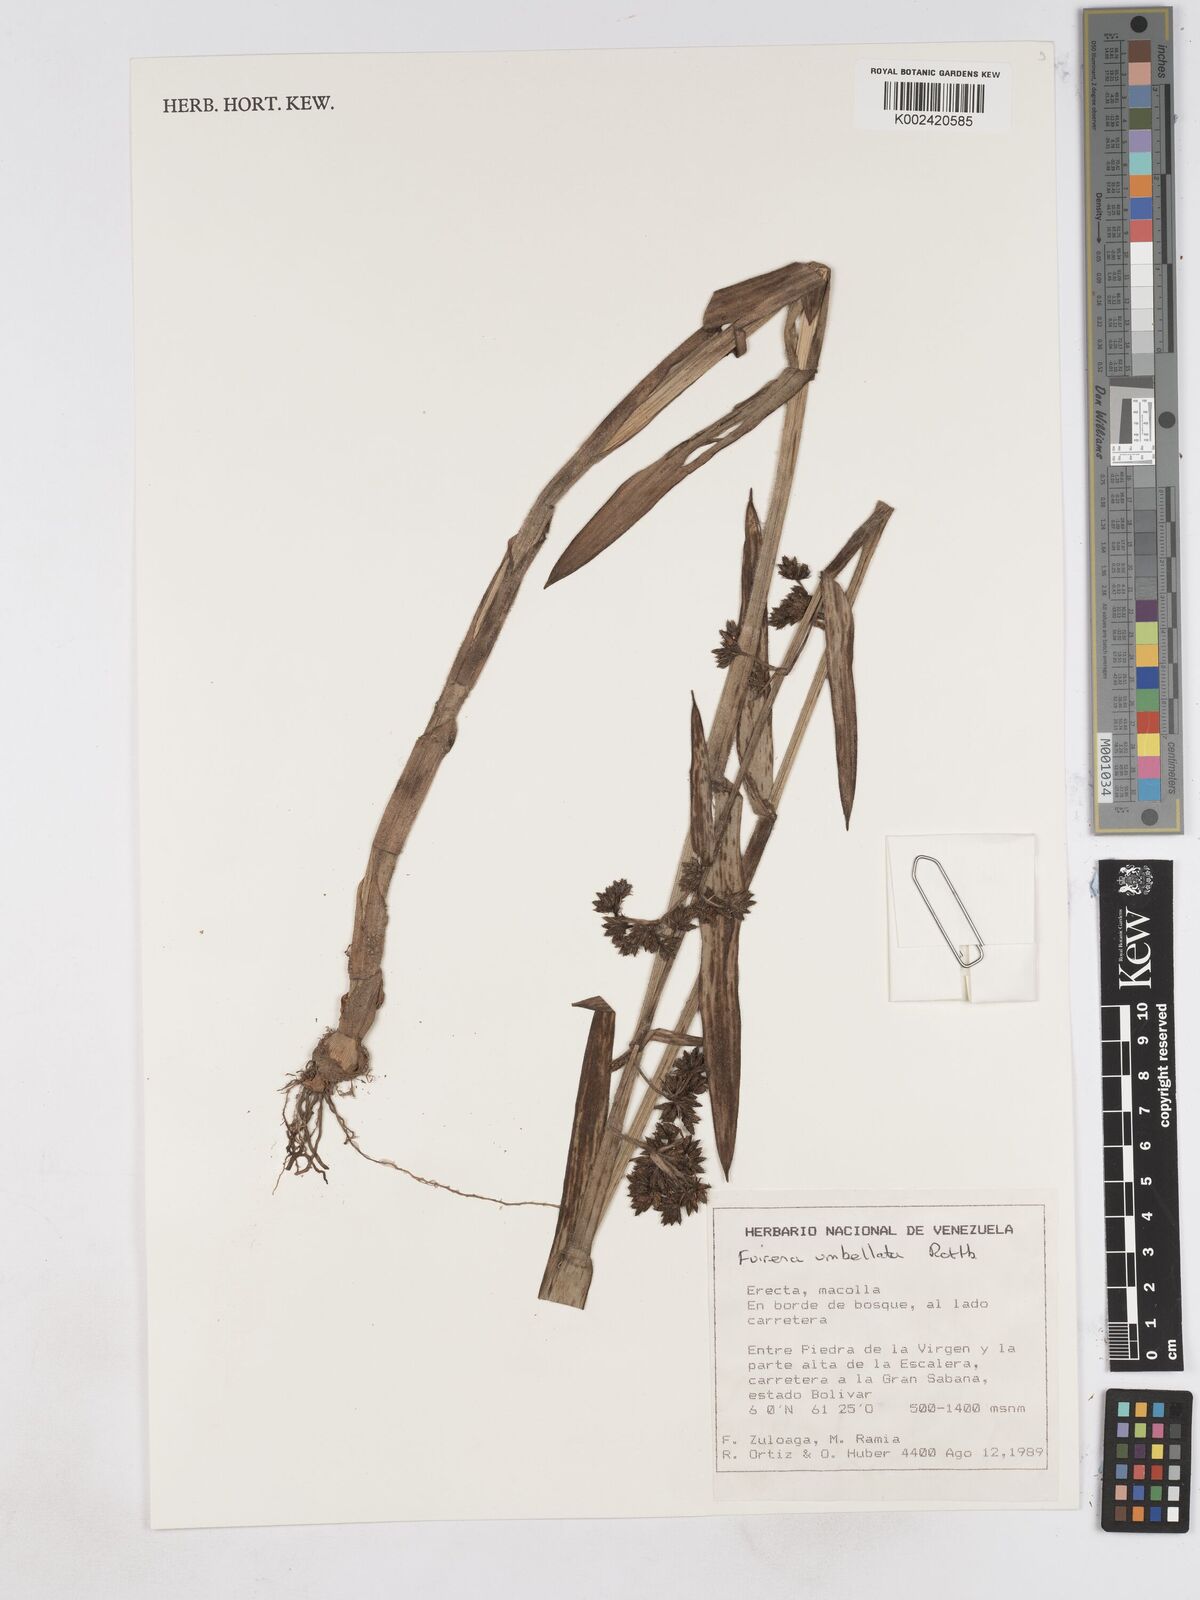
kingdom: Plantae
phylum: Tracheophyta
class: Liliopsida
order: Poales
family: Cyperaceae
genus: Fuirena
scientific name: Fuirena umbellata
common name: Yefen
